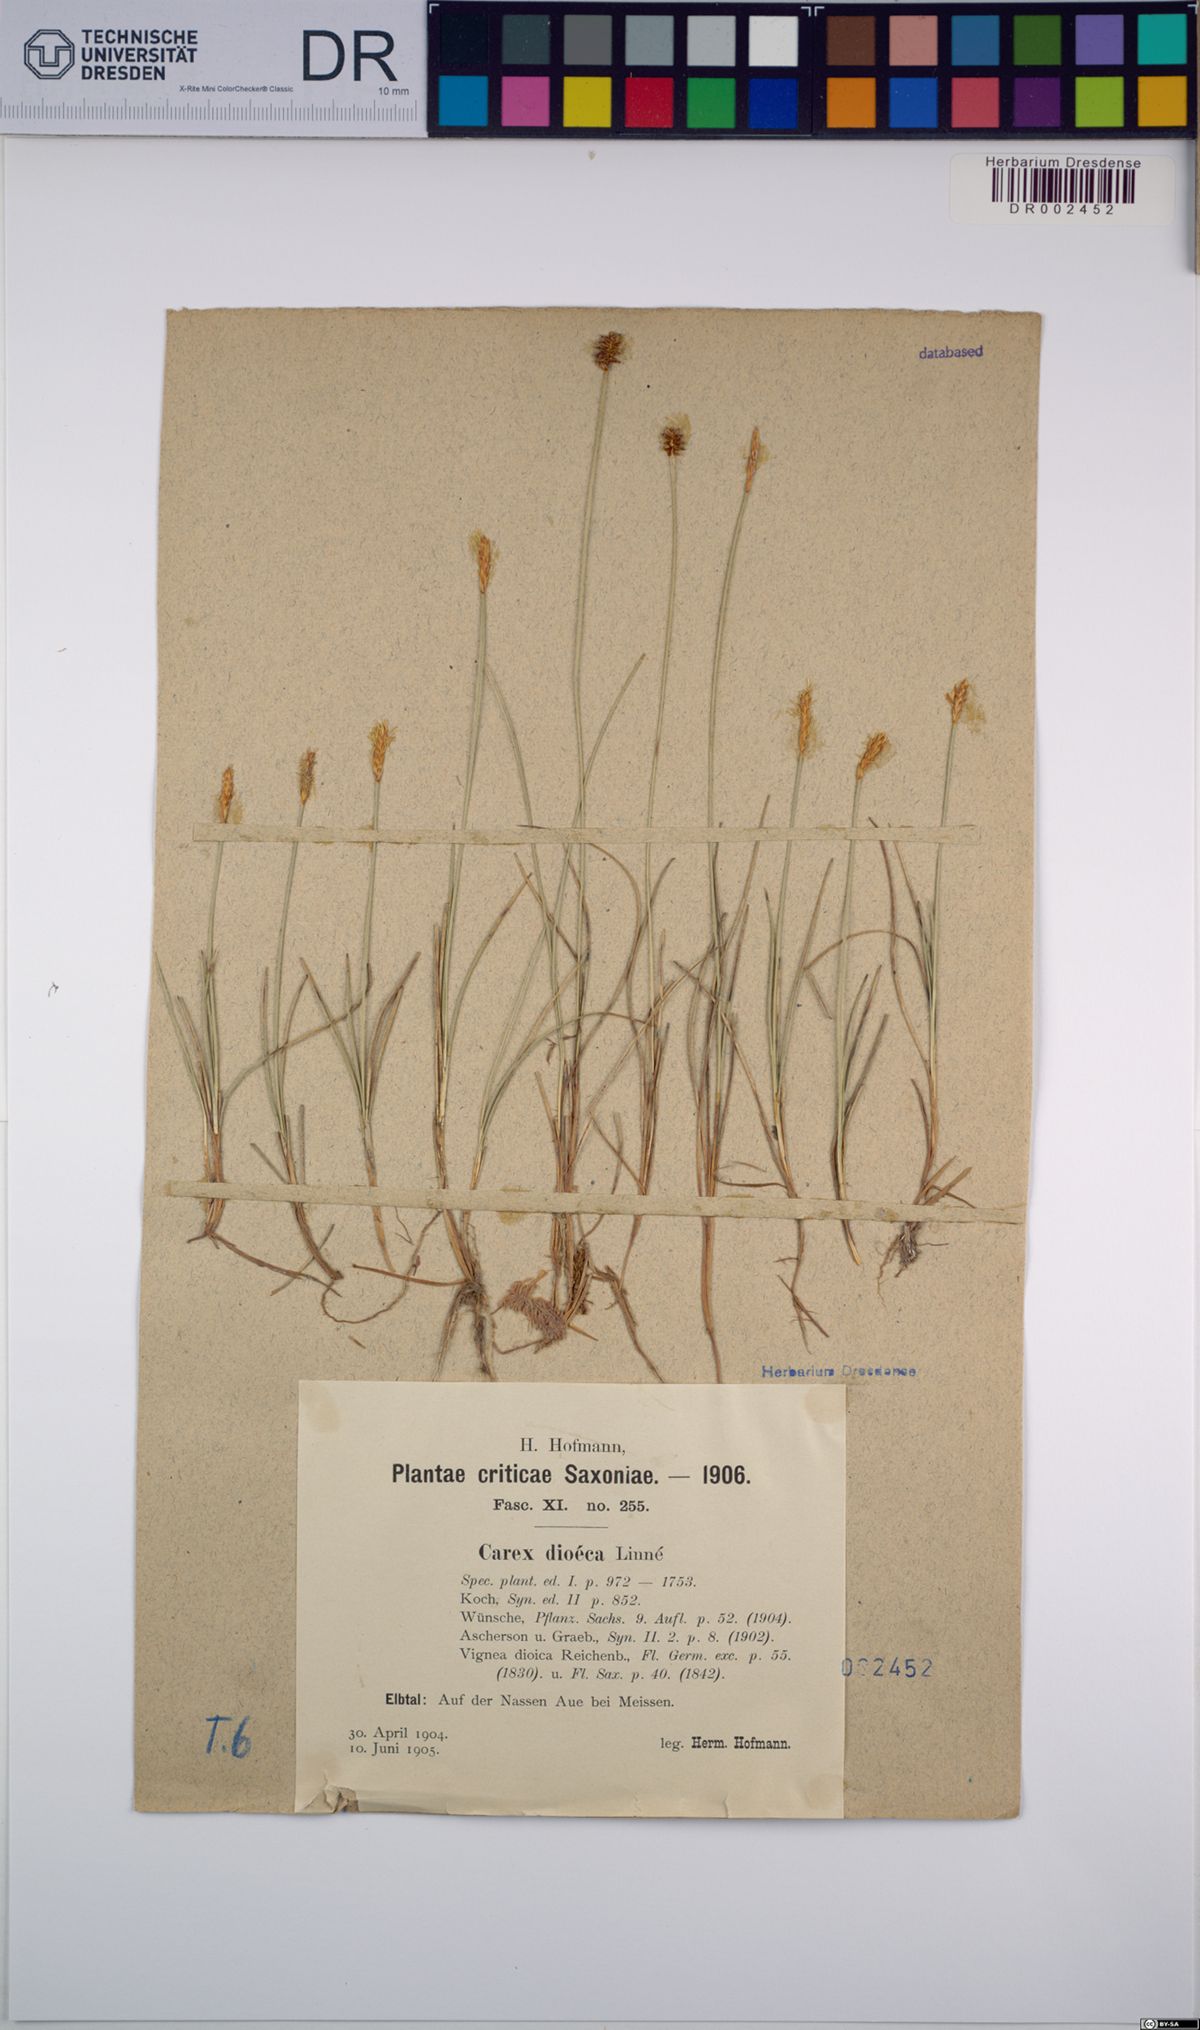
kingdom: Plantae
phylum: Tracheophyta
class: Liliopsida
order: Poales
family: Cyperaceae
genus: Carex
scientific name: Carex dioica
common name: Dioecious sedge
